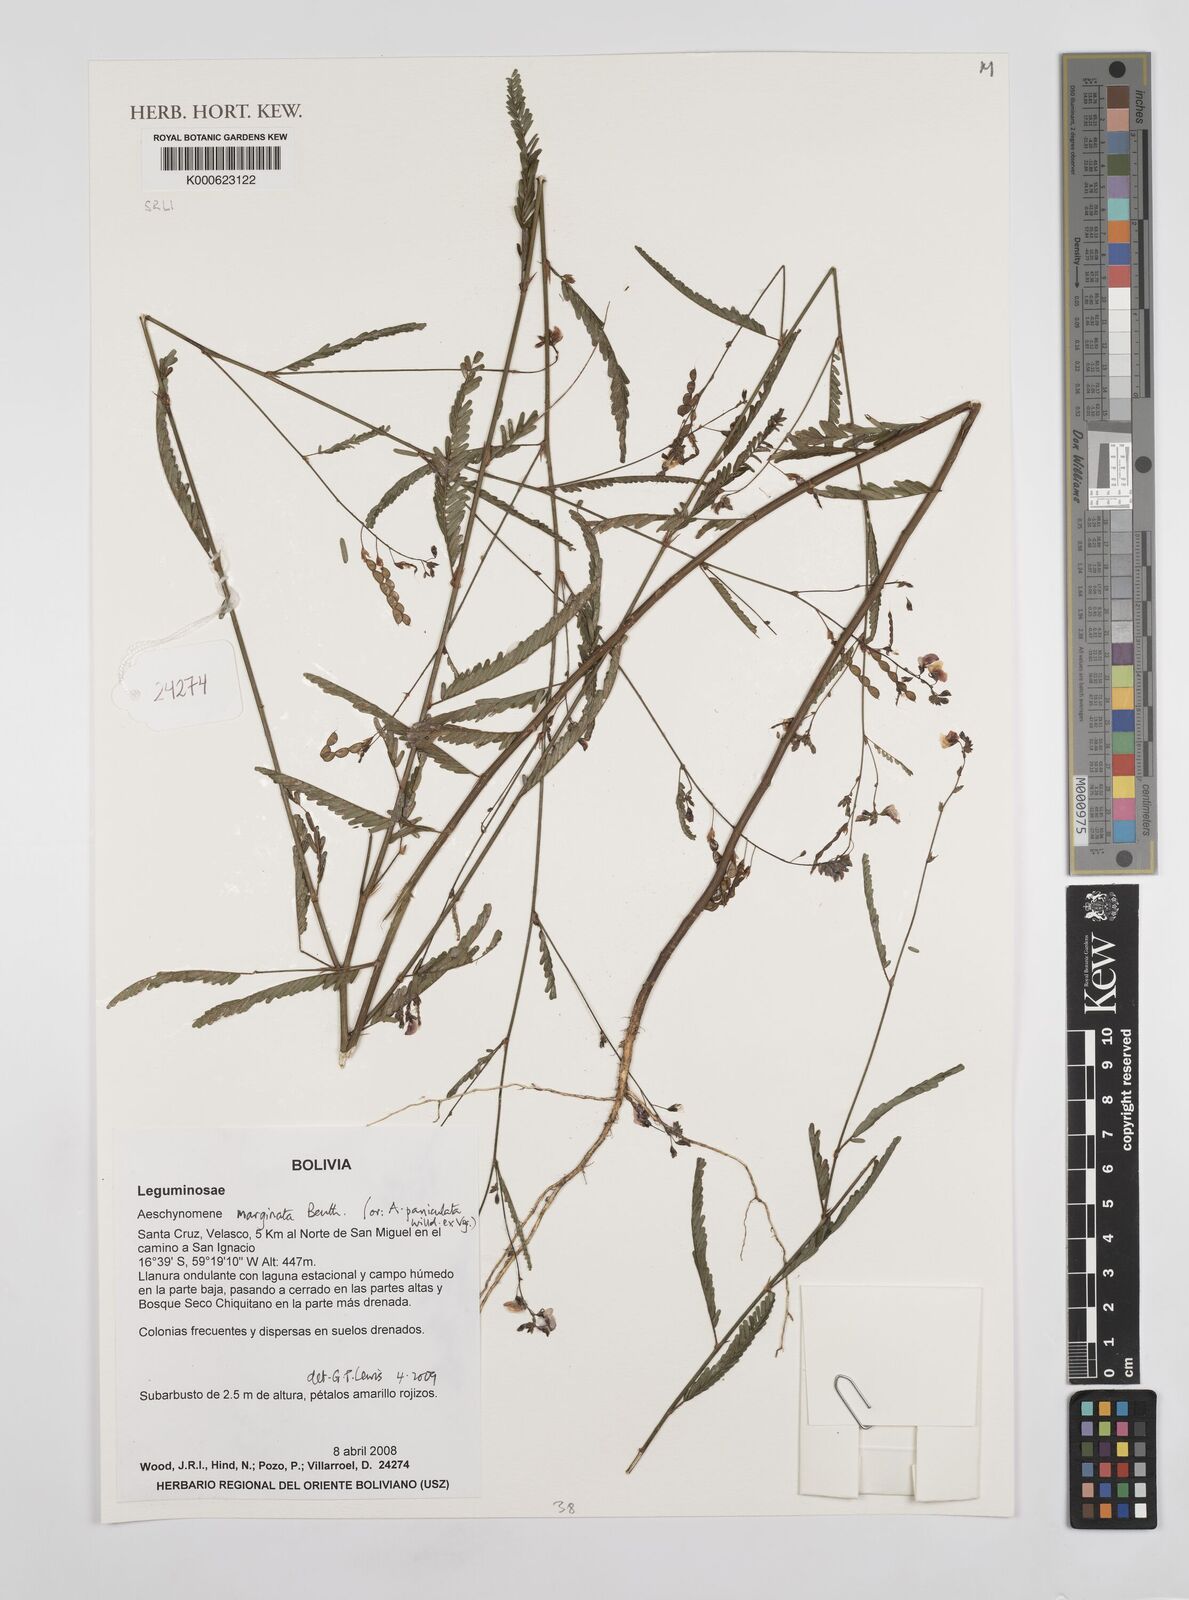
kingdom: Plantae
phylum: Tracheophyta
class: Magnoliopsida
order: Fabales
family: Fabaceae
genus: Ctenodon
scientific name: Ctenodon marginatus
